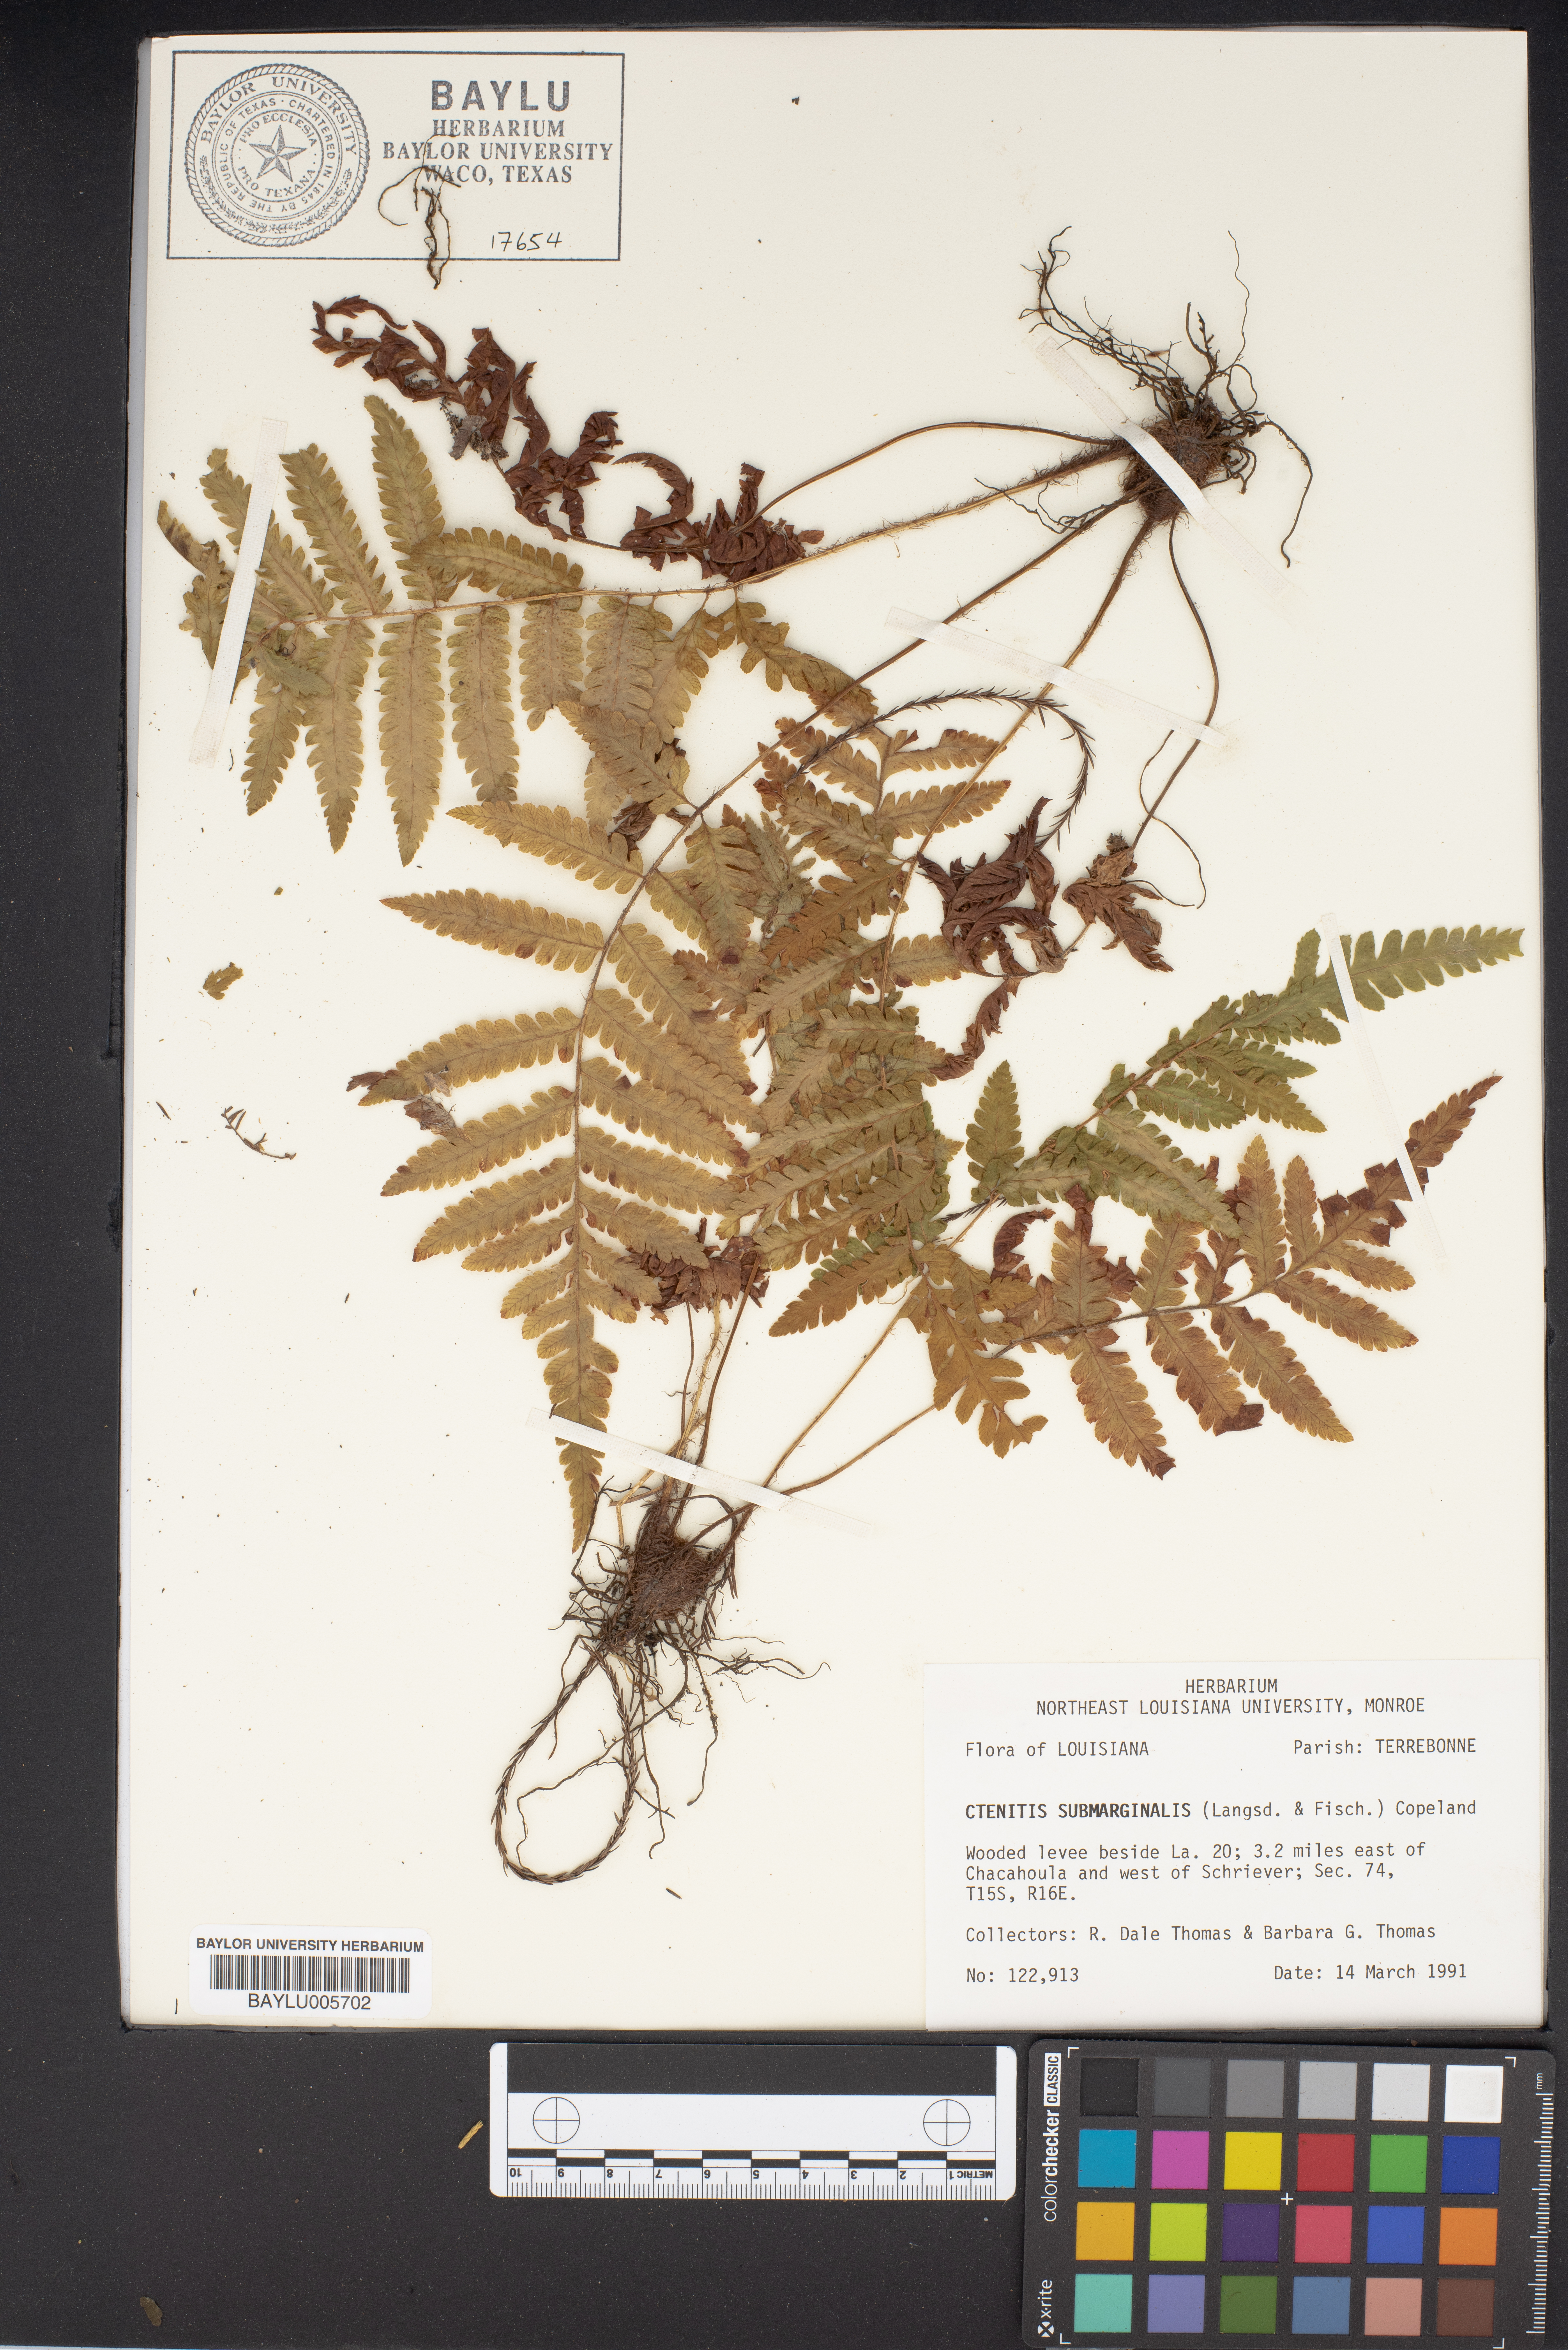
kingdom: Plantae
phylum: Tracheophyta
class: Polypodiopsida
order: Polypodiales
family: Dryopteridaceae
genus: Ctenitis
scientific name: Ctenitis submarginalis
